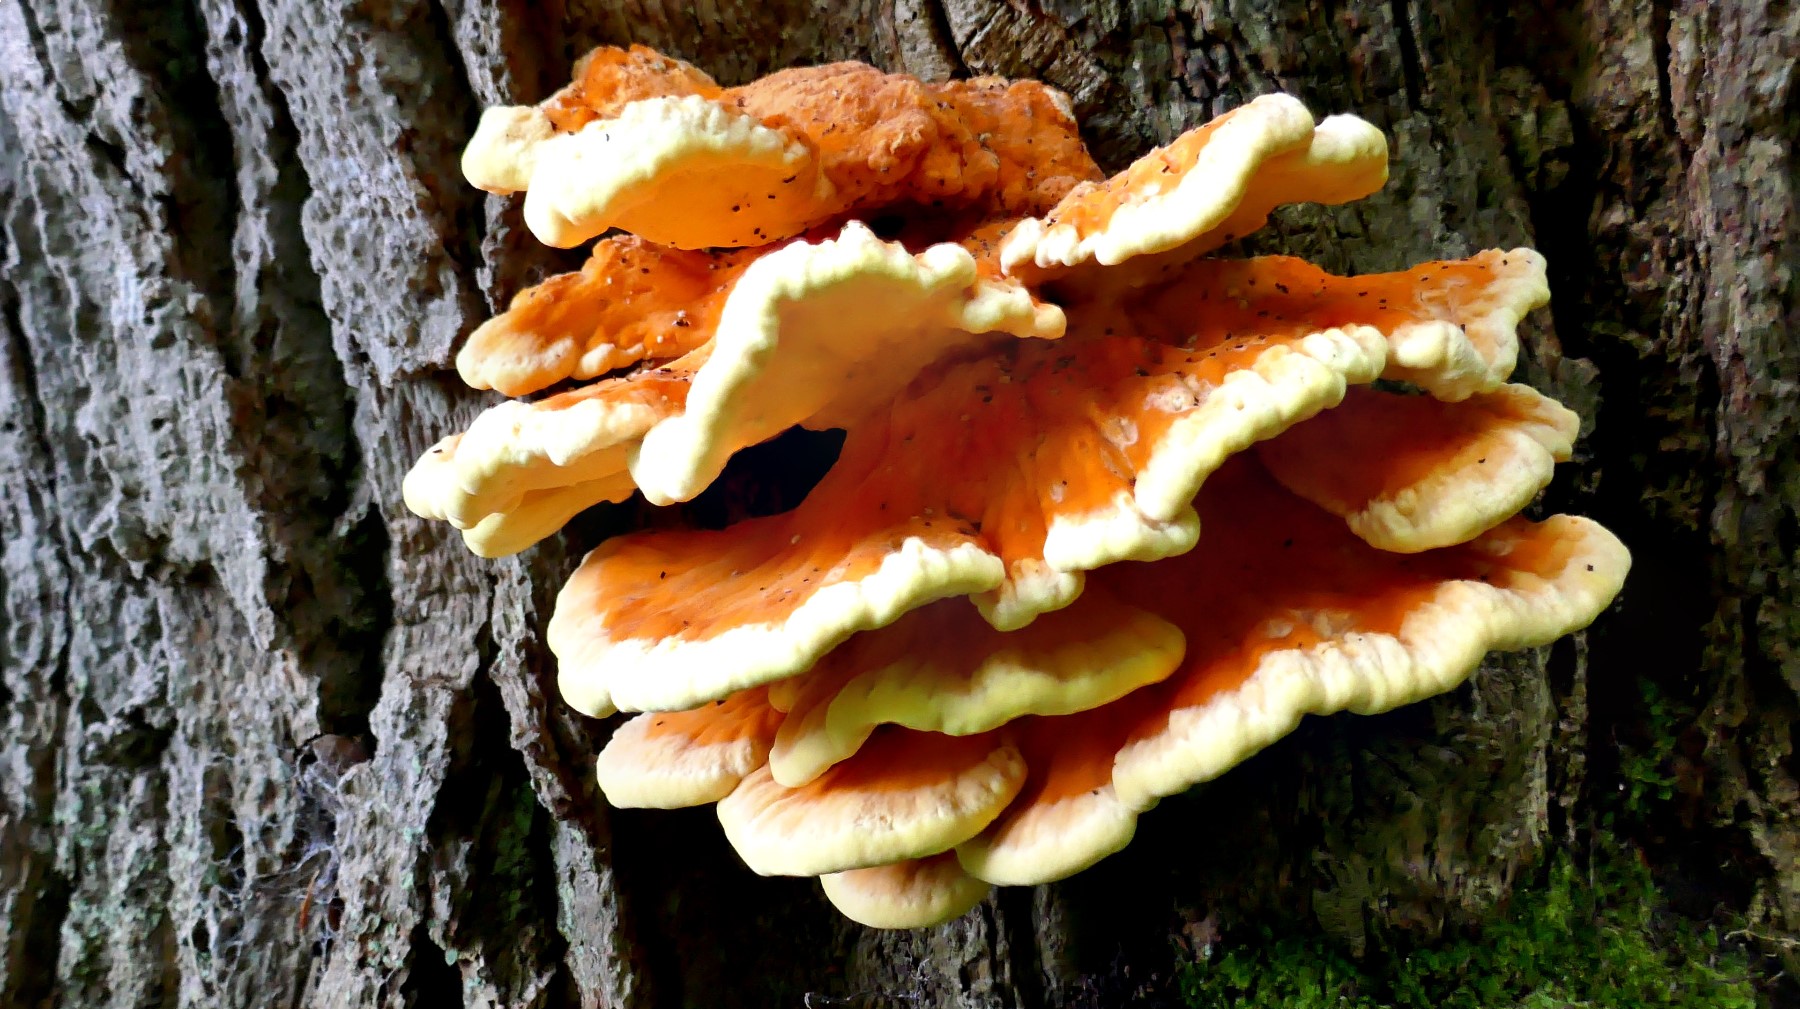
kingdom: Fungi
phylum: Basidiomycota
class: Agaricomycetes
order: Polyporales
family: Laetiporaceae
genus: Laetiporus
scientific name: Laetiporus sulphureus
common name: svovlporesvamp
